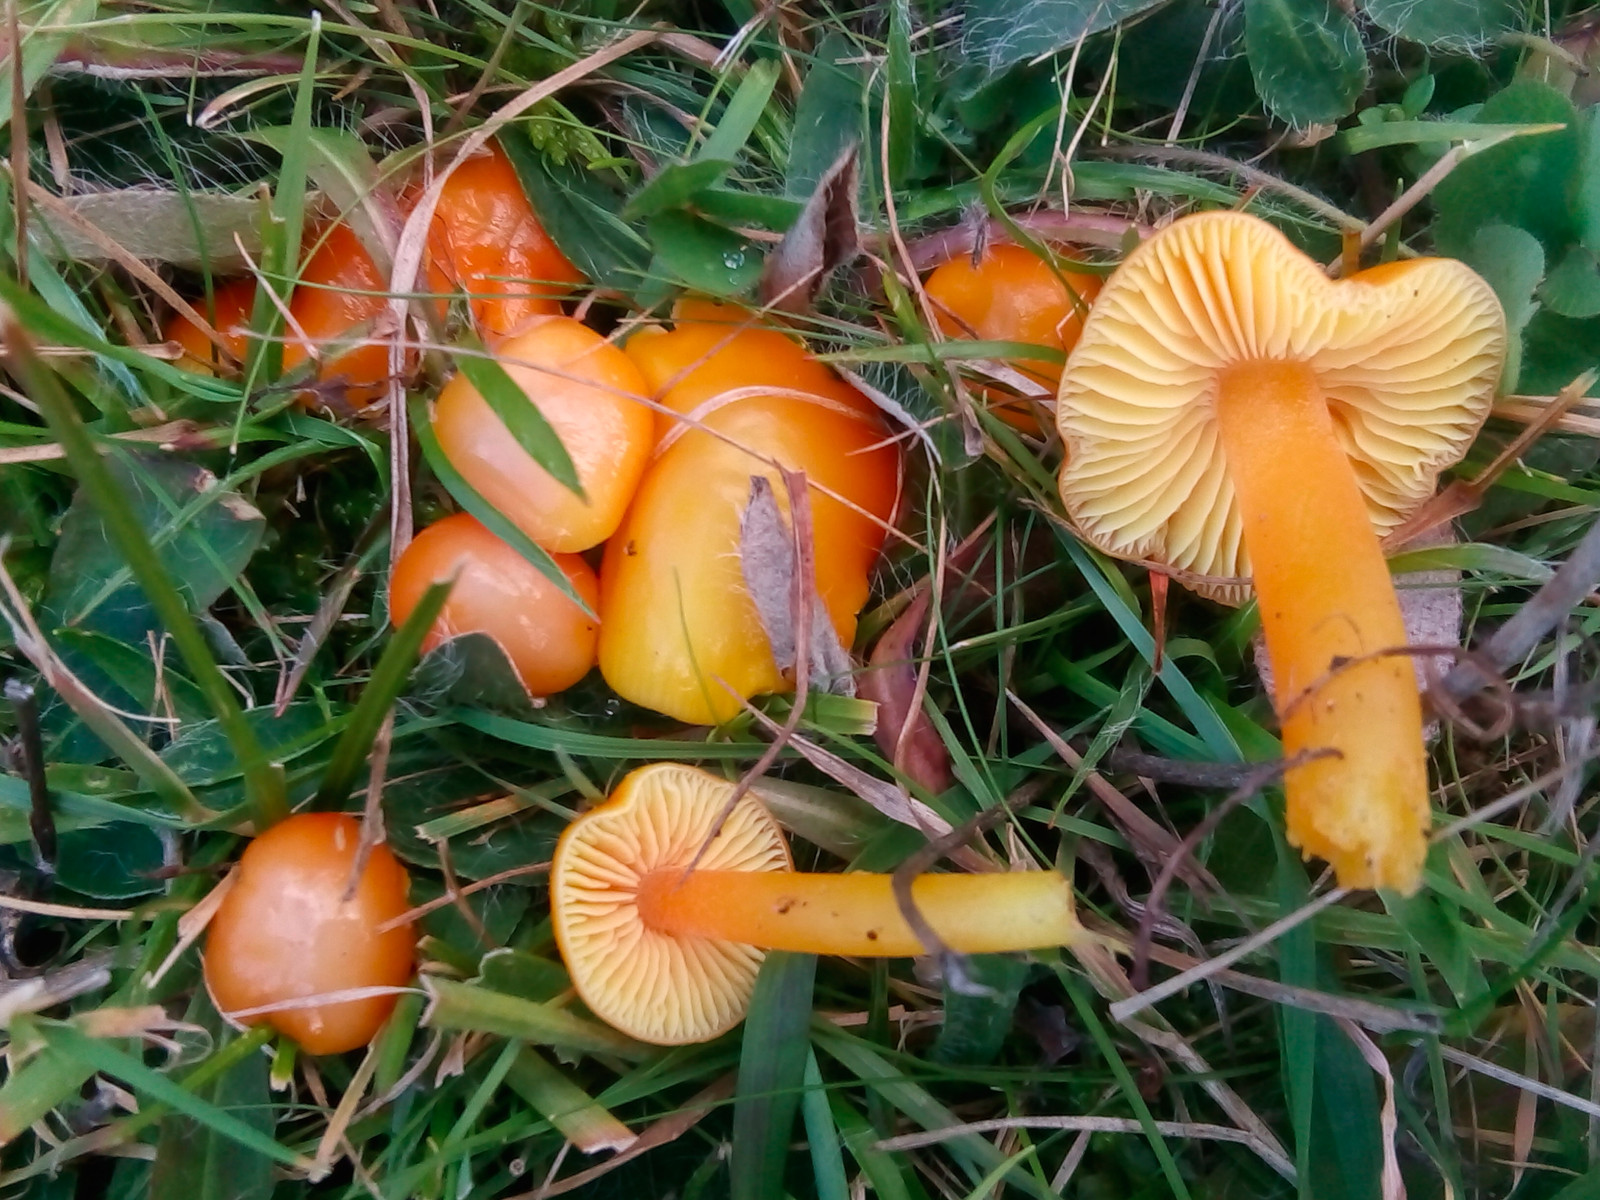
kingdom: Fungi
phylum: Basidiomycota
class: Agaricomycetes
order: Agaricales
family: Hygrophoraceae
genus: Hygrocybe
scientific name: Hygrocybe chlorophana
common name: gul vokshat
